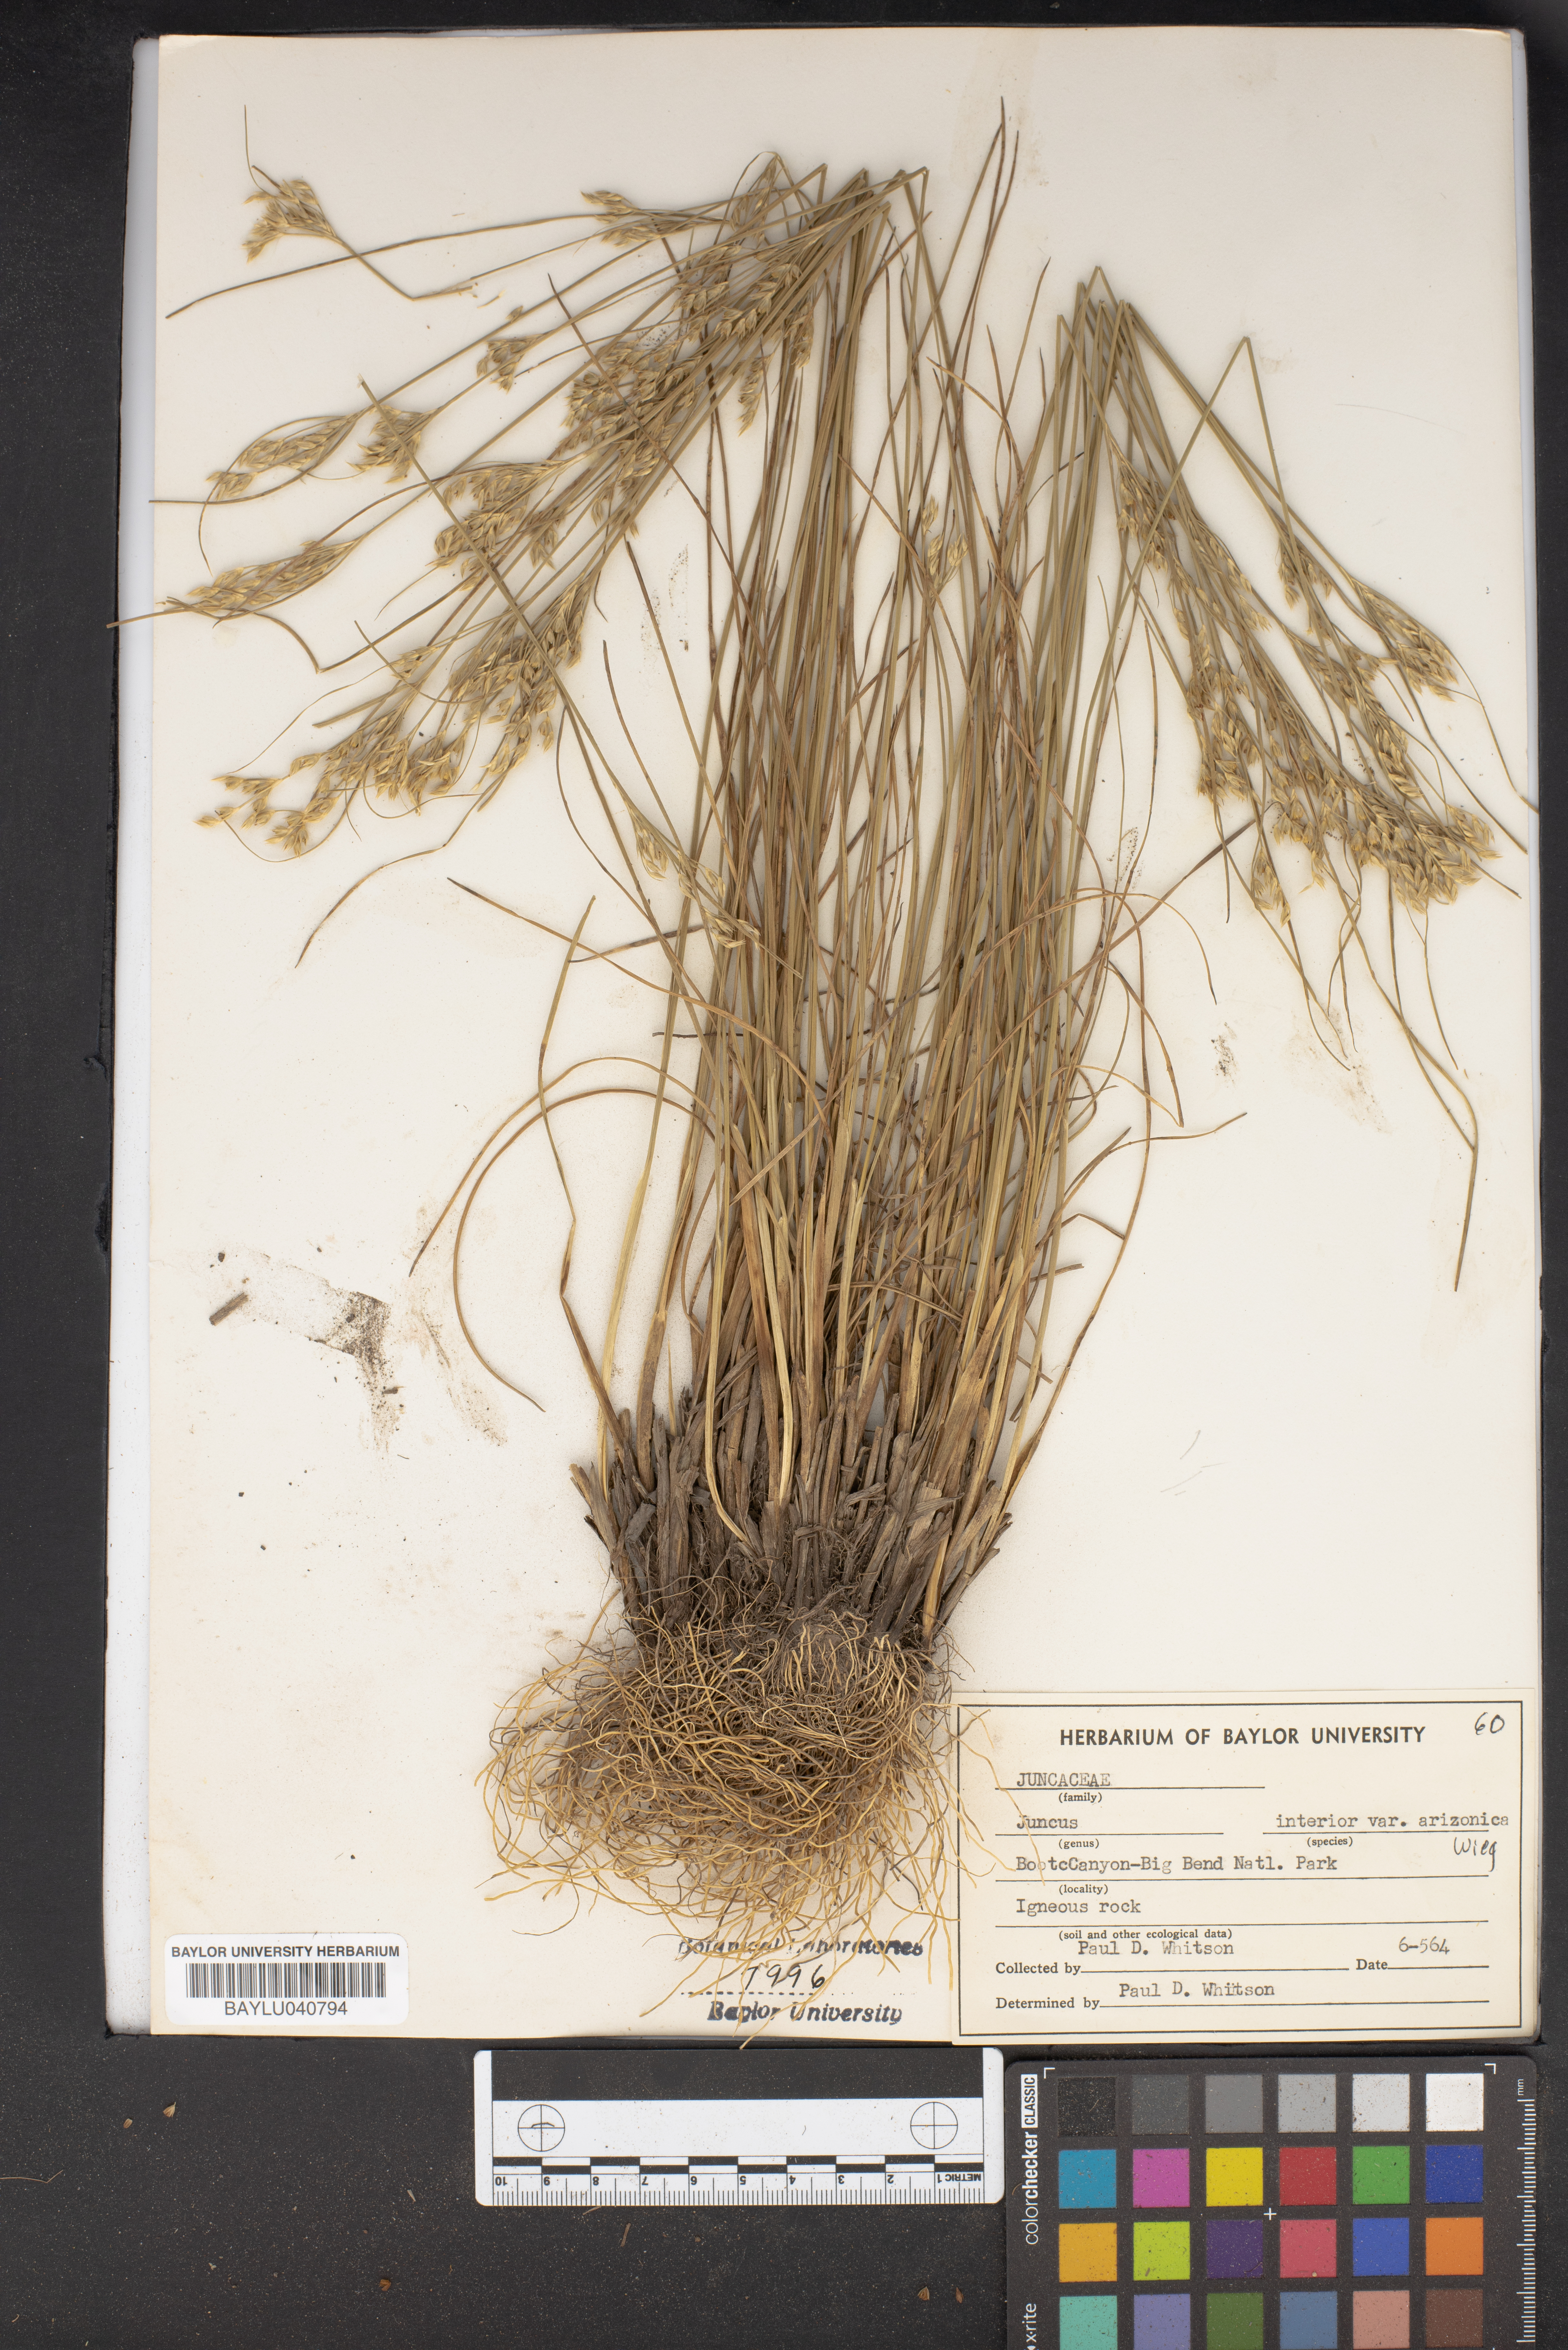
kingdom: Plantae
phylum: Tracheophyta
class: Liliopsida
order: Poales
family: Juncaceae
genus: Juncus
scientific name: Juncus interior
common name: Interior rush
